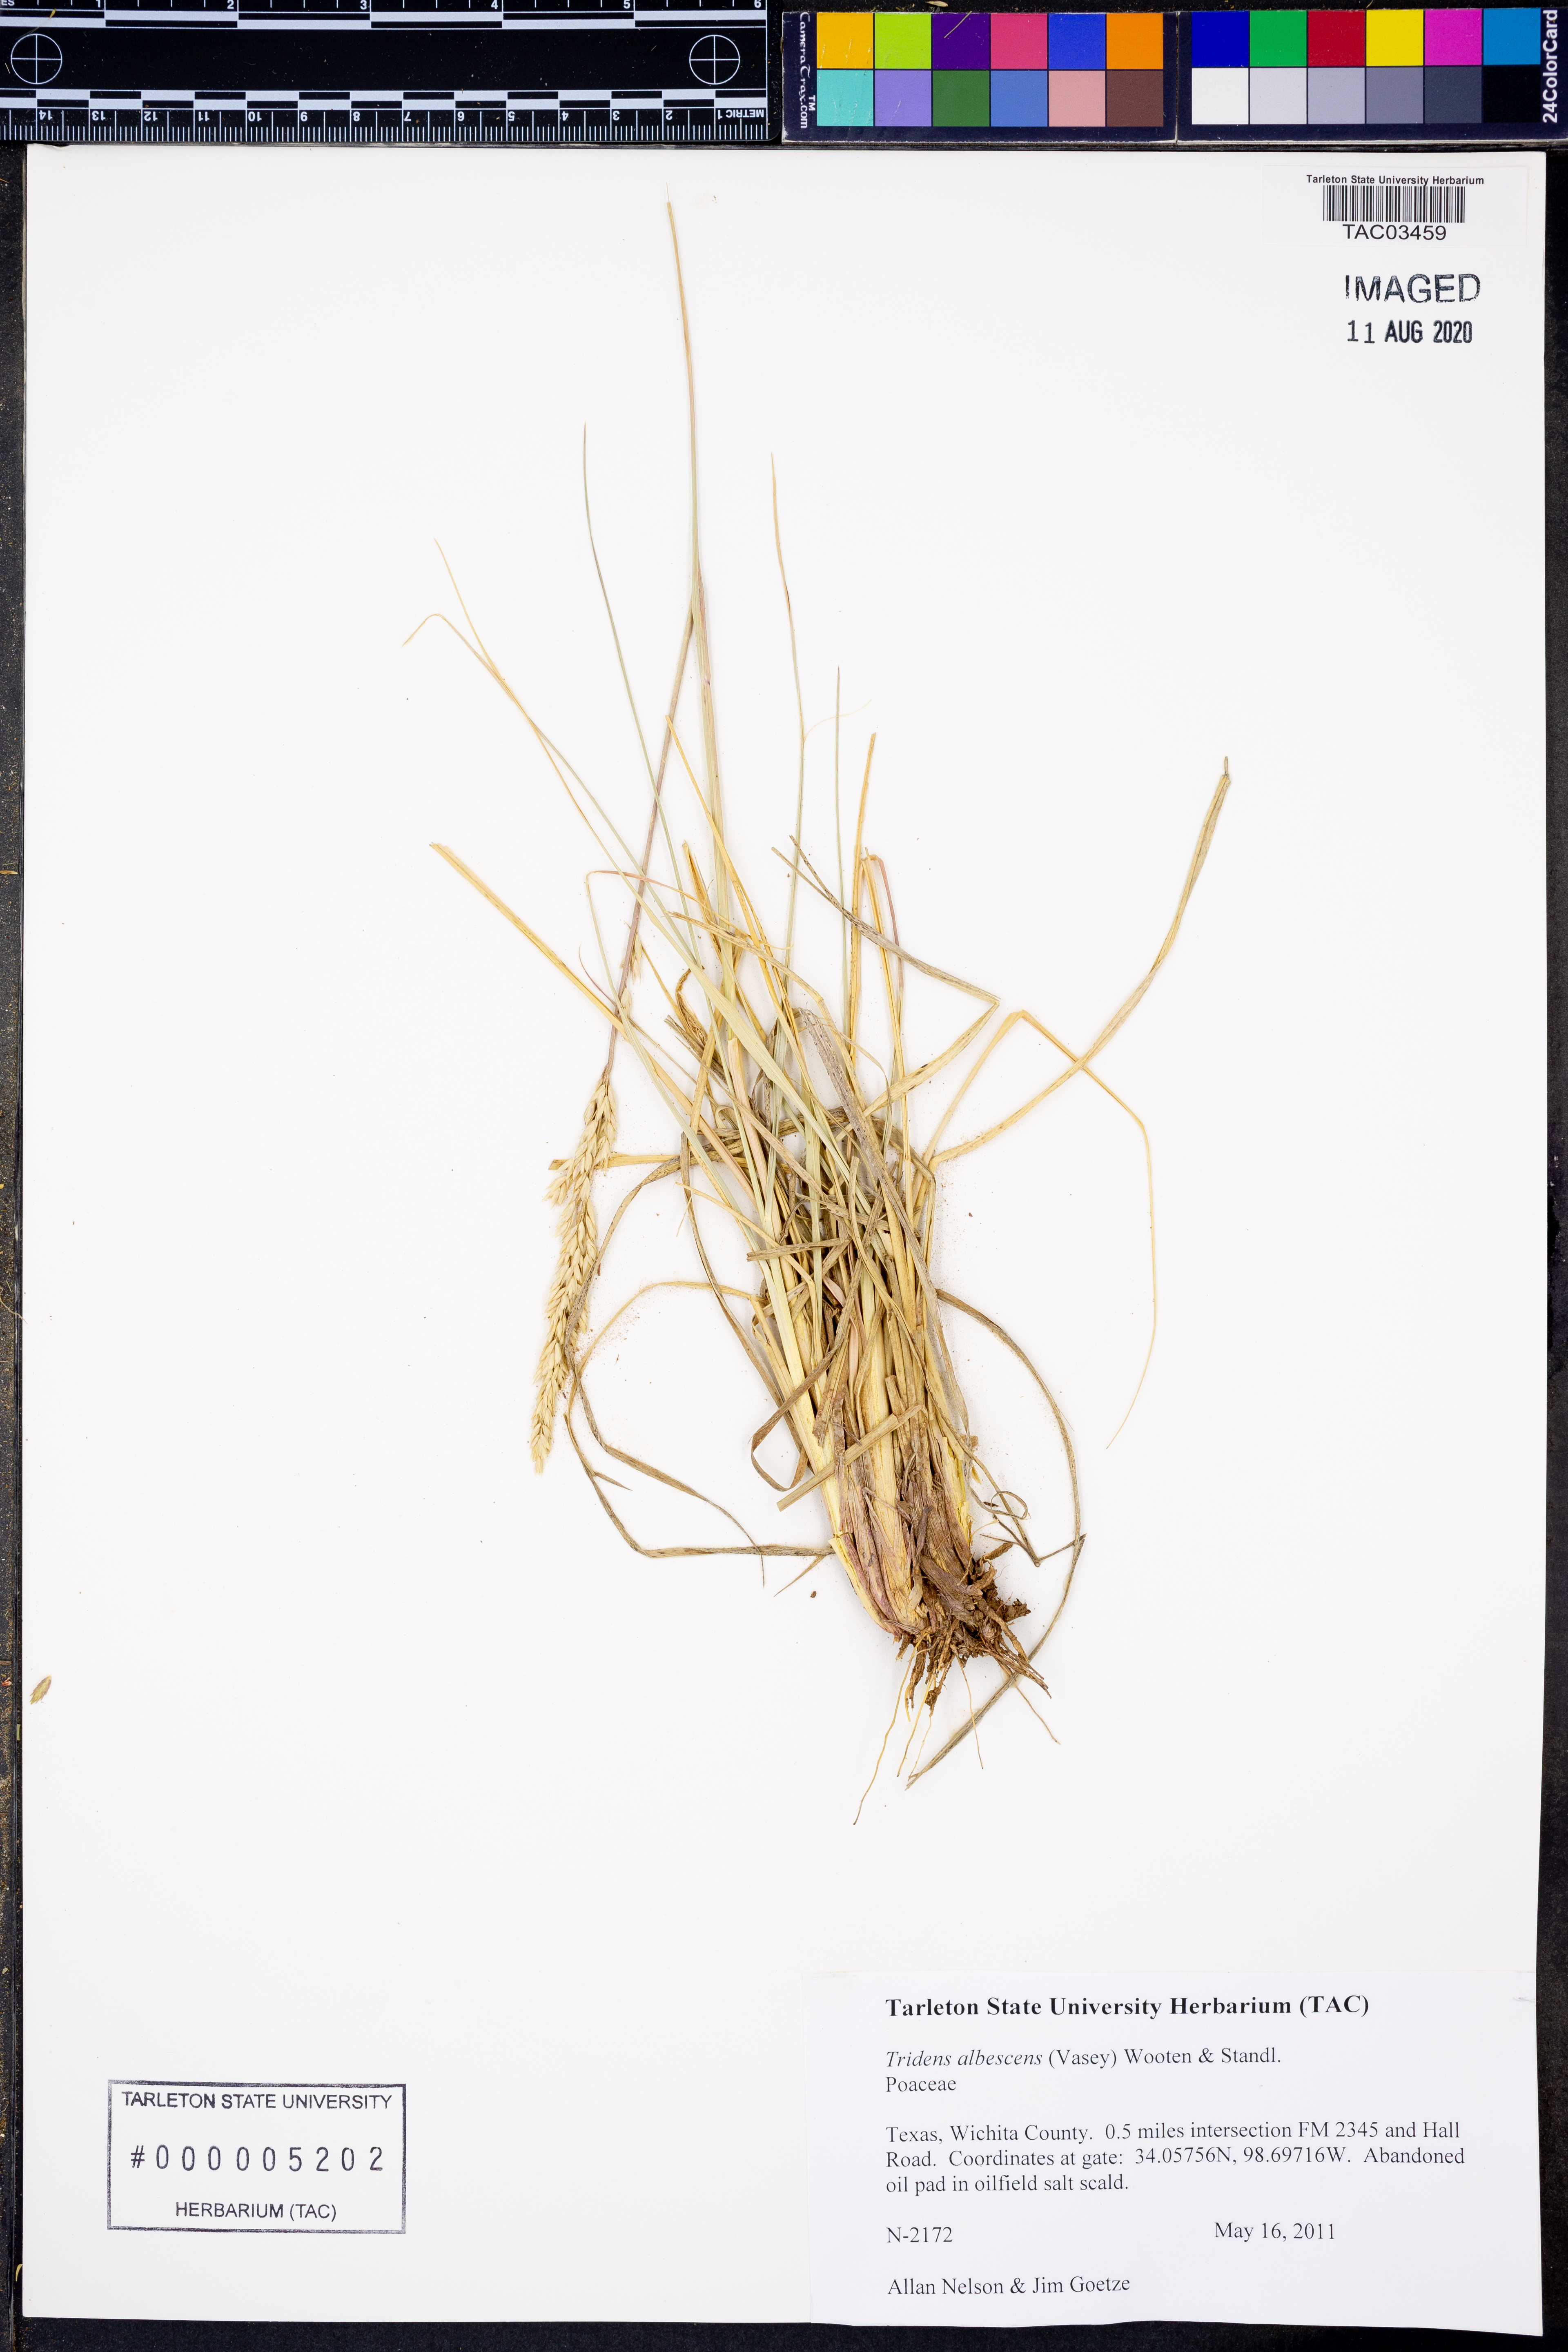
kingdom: Plantae
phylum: Tracheophyta
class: Liliopsida
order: Poales
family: Poaceae
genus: Tridens
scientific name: Tridens albescens
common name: White tridens
